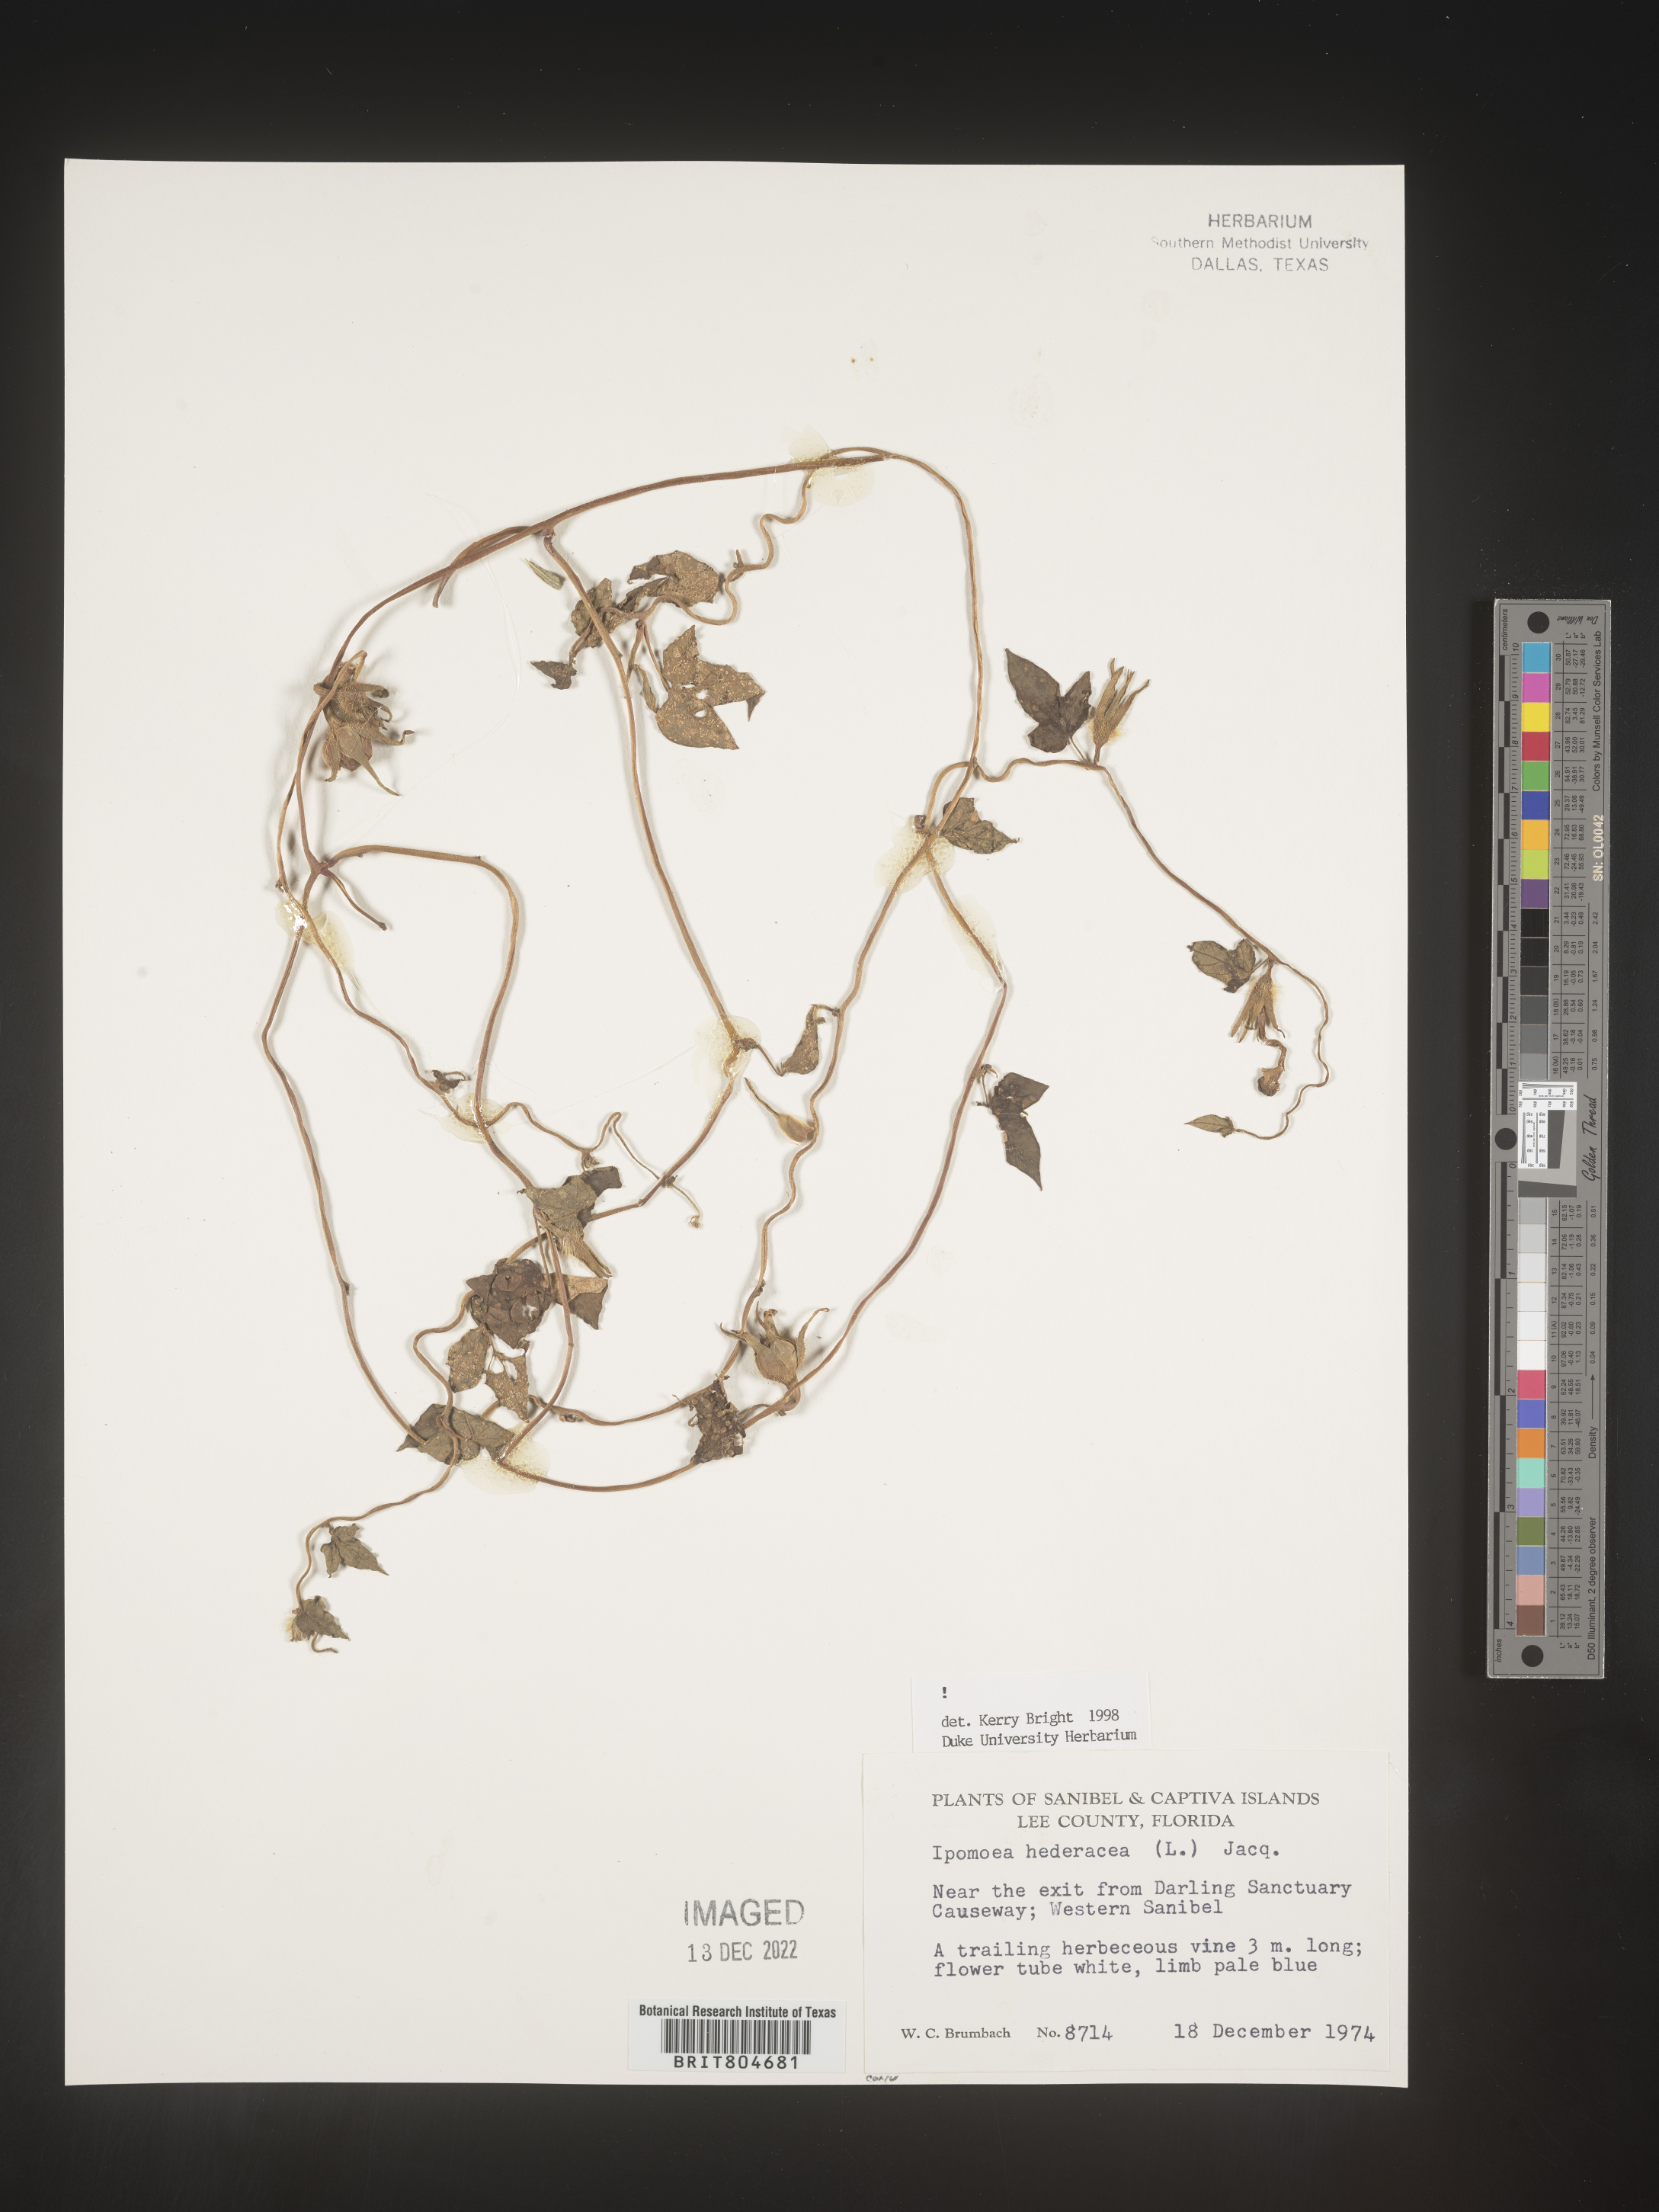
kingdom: Plantae
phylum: Tracheophyta
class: Magnoliopsida
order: Solanales
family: Convolvulaceae
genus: Ipomoea
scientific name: Ipomoea hederacea
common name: Ivy-leaved morning-glory
